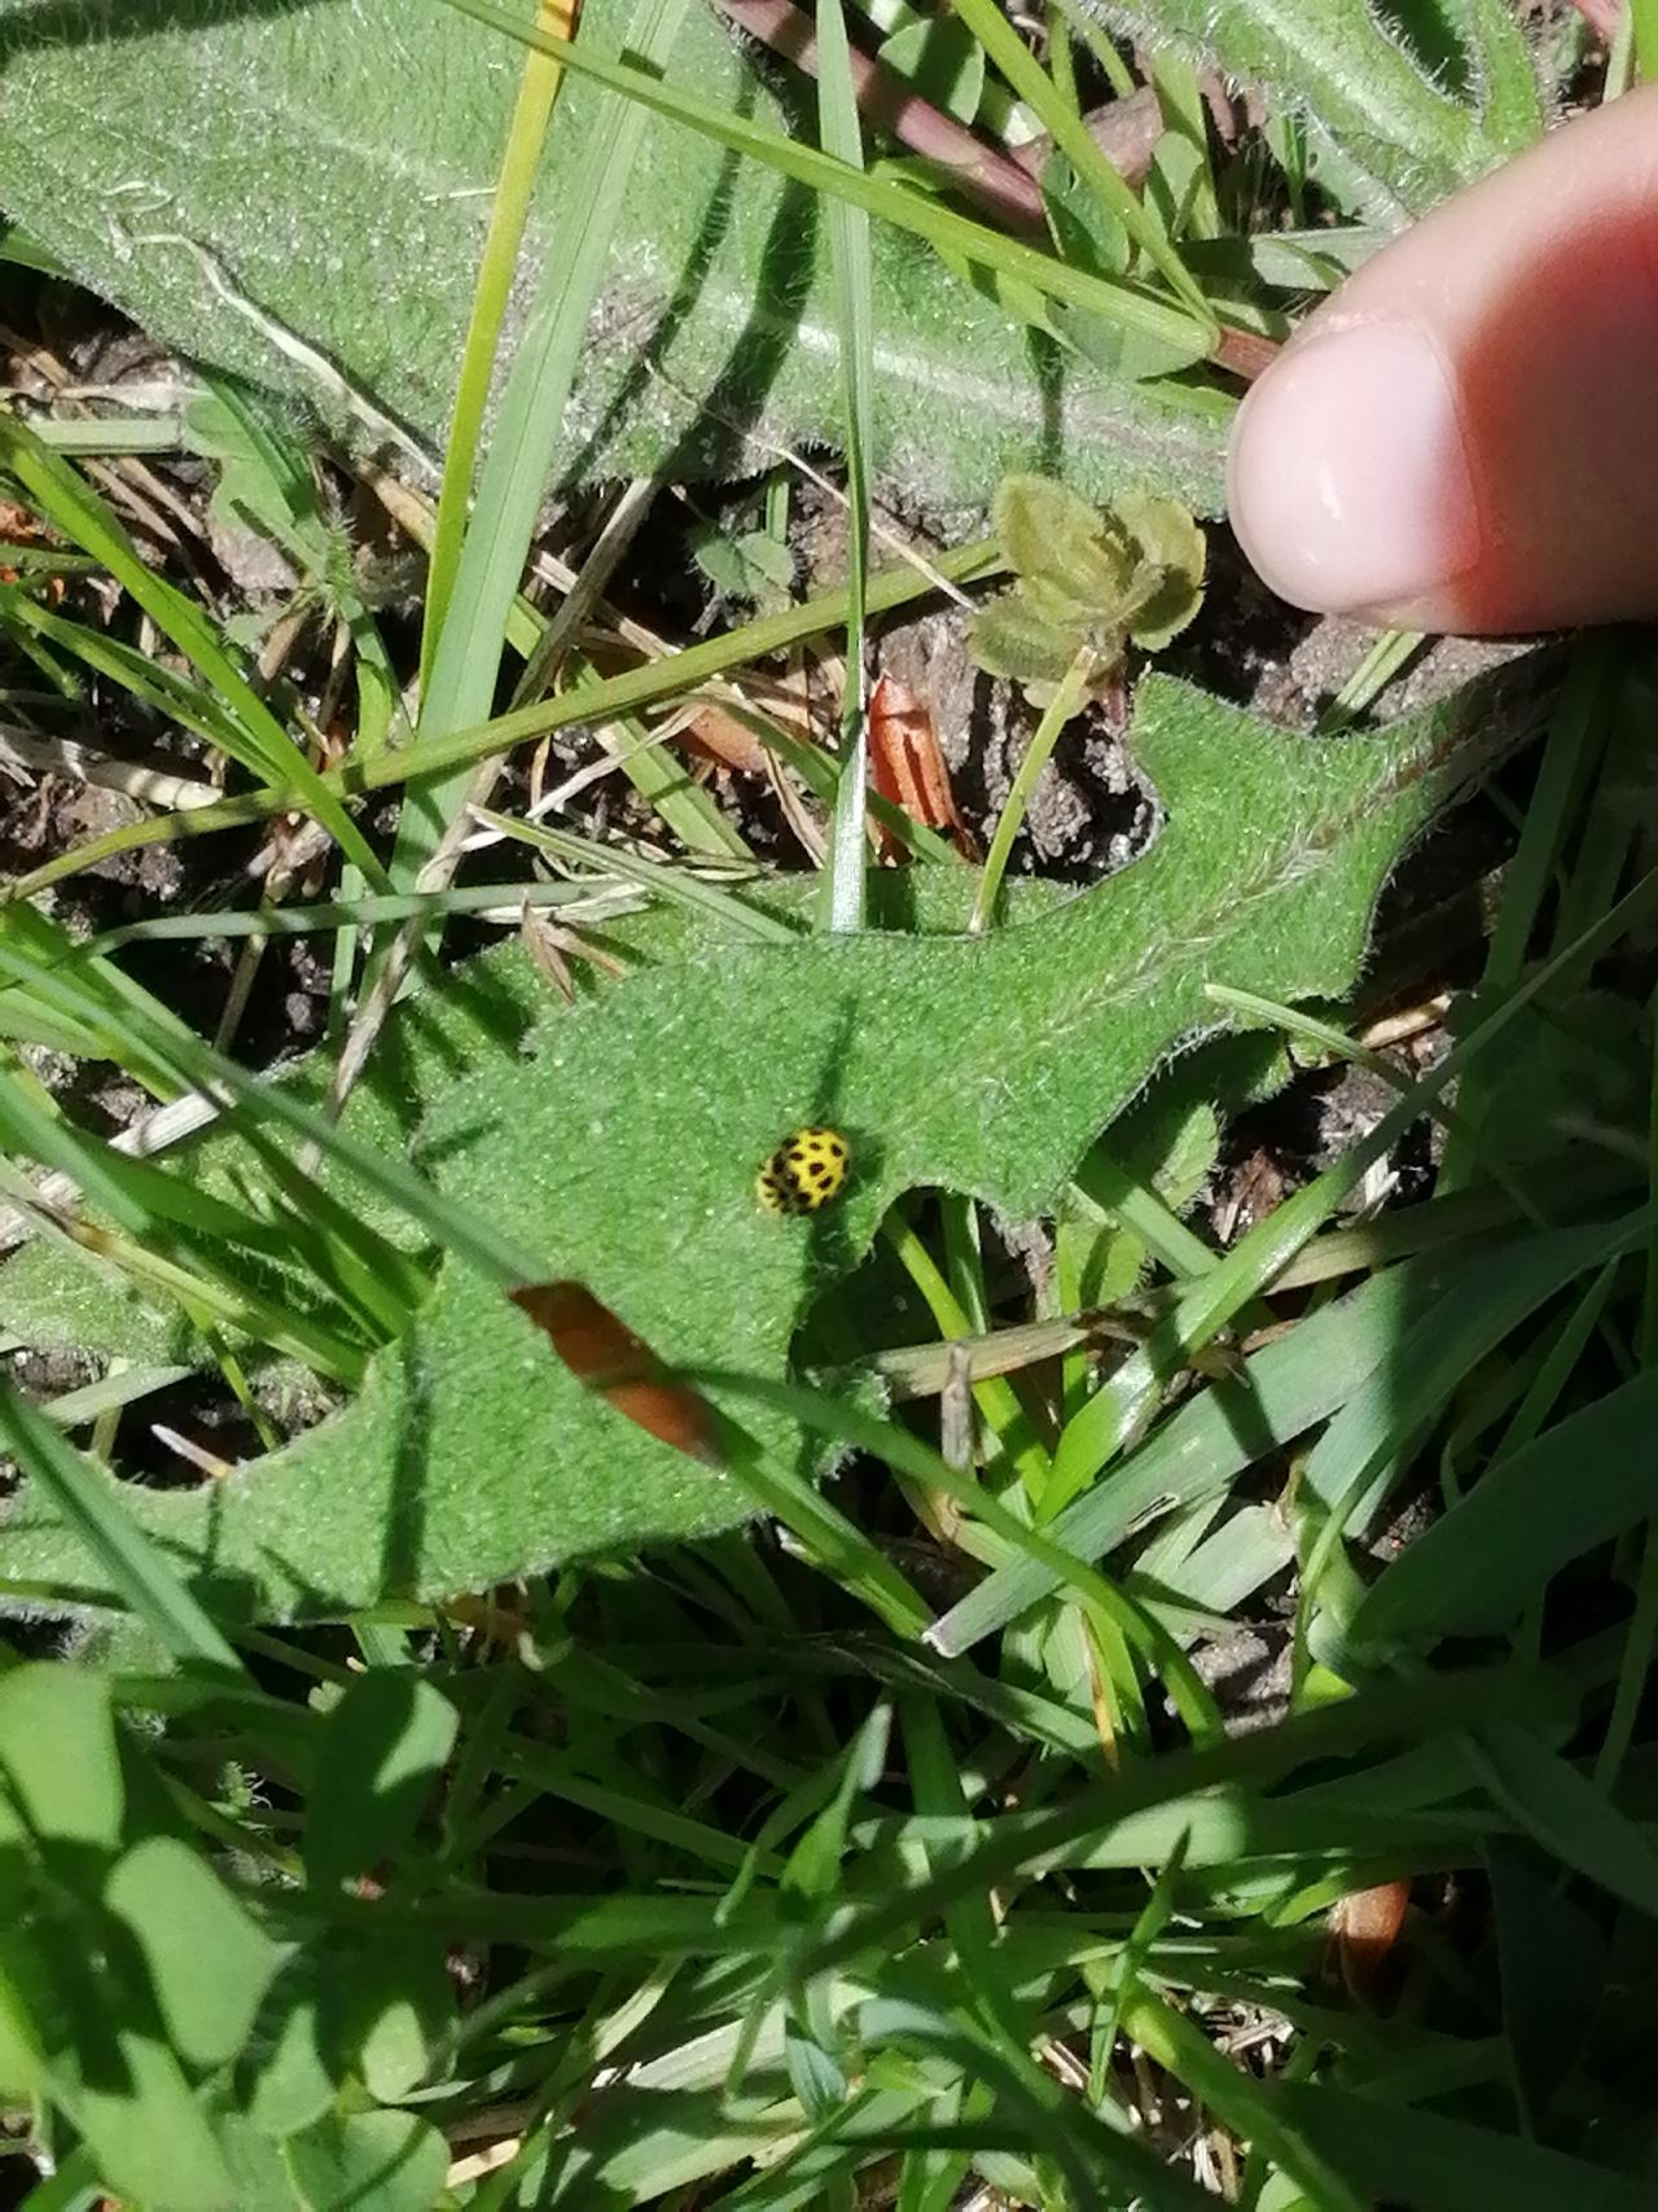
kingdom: Animalia
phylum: Arthropoda
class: Insecta
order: Coleoptera
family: Coccinellidae
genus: Psyllobora
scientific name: Psyllobora vigintiduopunctata
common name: Toogtyveplettet mariehøne
